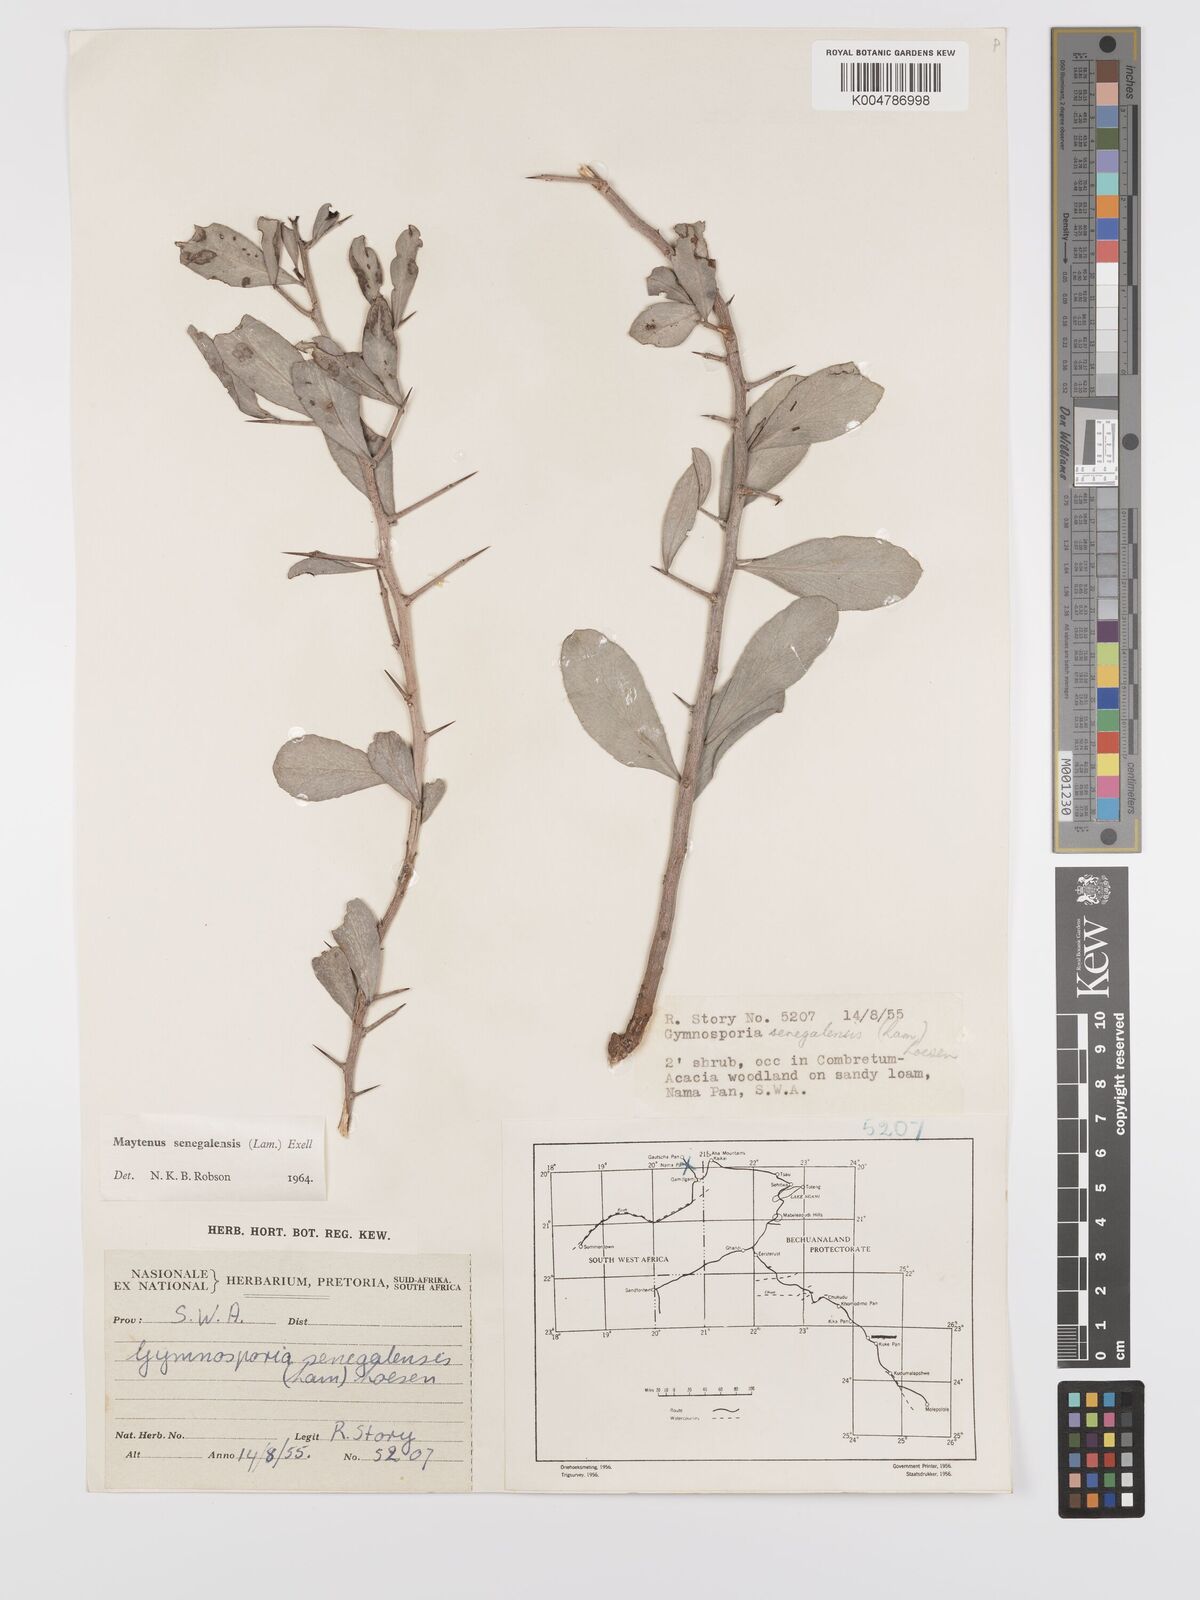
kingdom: Plantae
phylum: Tracheophyta
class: Magnoliopsida
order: Celastrales
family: Celastraceae
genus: Gymnosporia
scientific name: Gymnosporia senegalensis
